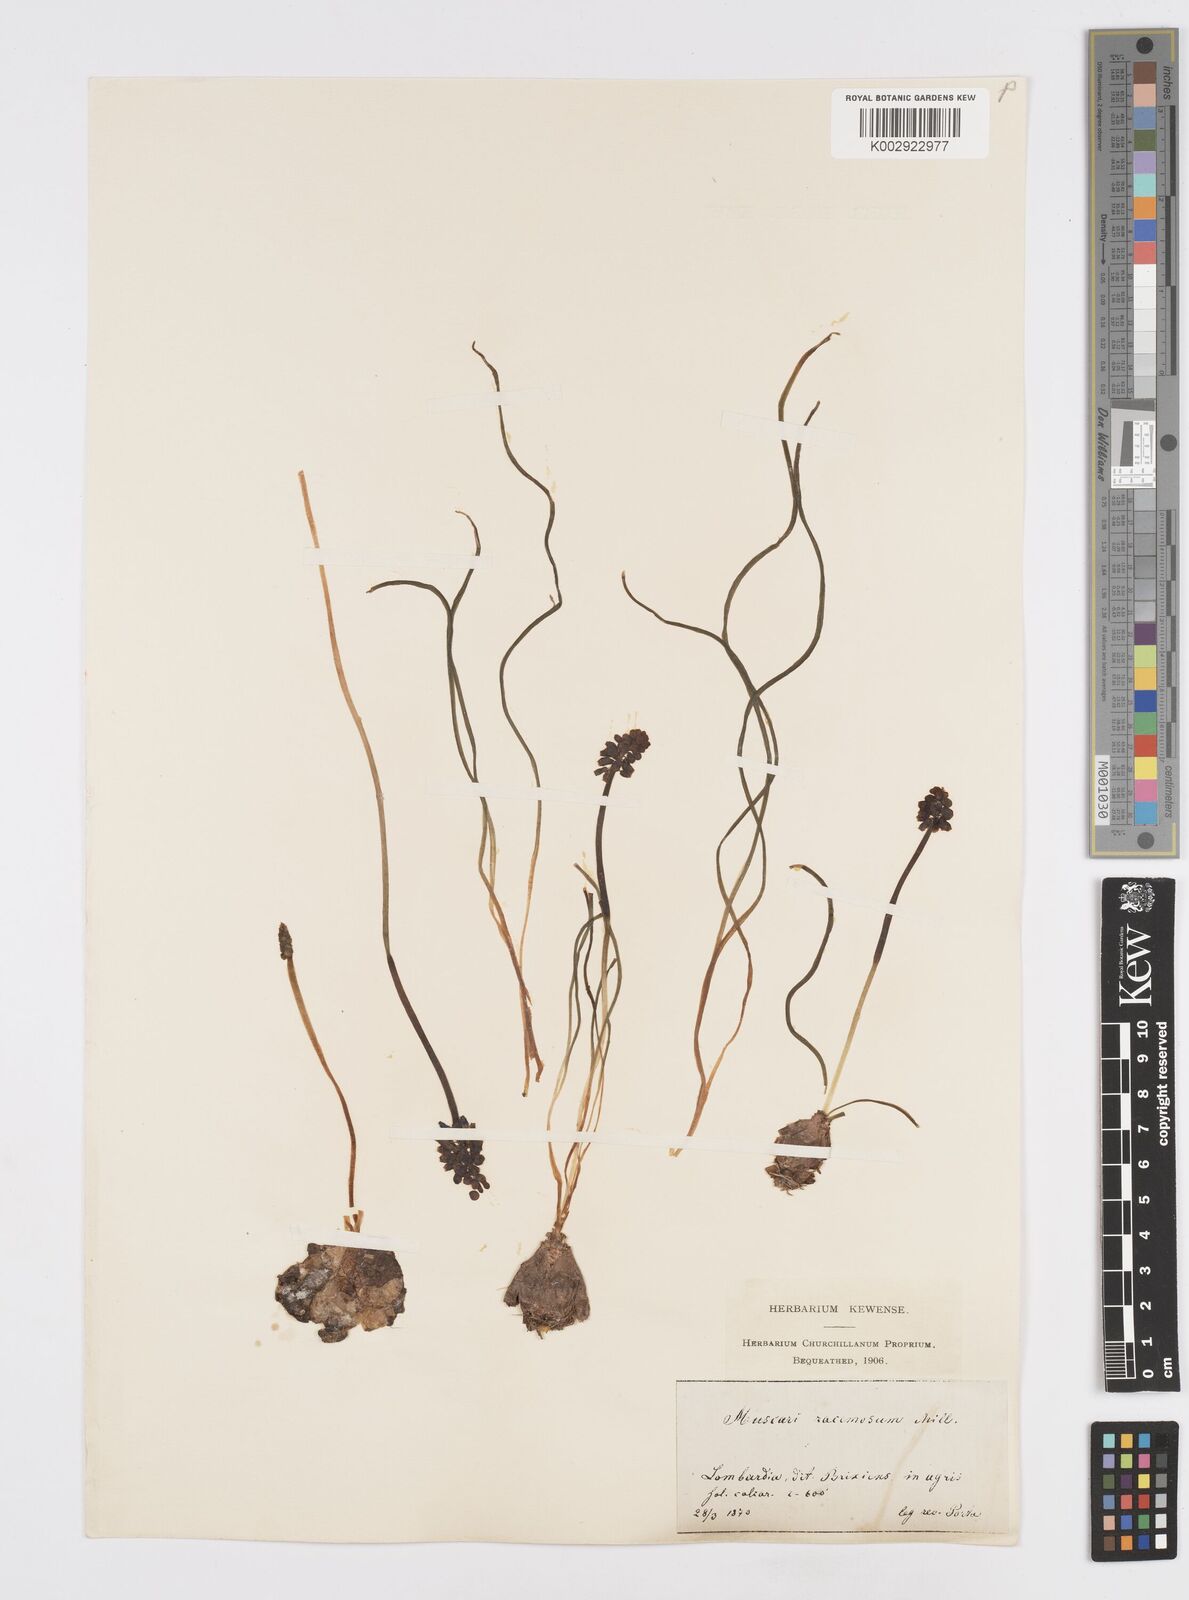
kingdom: Plantae
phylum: Tracheophyta
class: Liliopsida
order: Asparagales
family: Asparagaceae
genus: Muscarimia
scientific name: Muscarimia muscari
